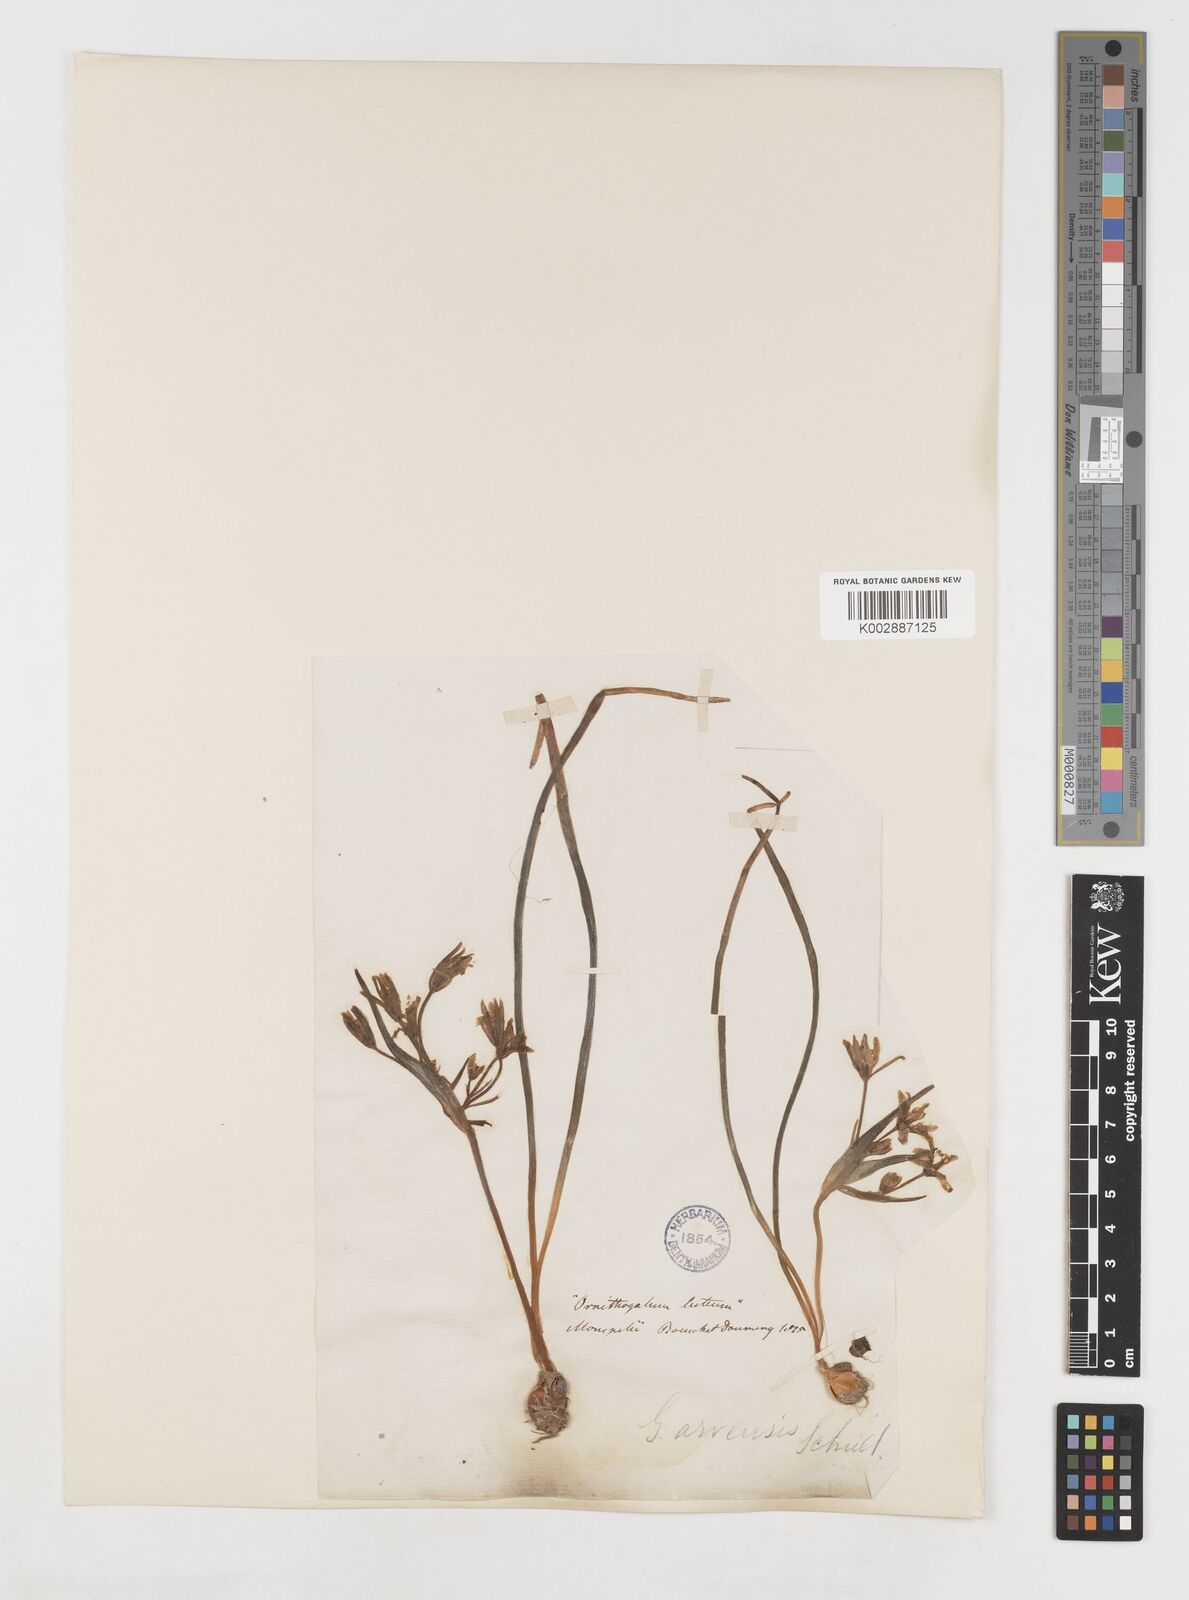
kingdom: Plantae
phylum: Tracheophyta
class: Liliopsida
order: Liliales
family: Liliaceae
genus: Gagea
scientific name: Gagea minima
